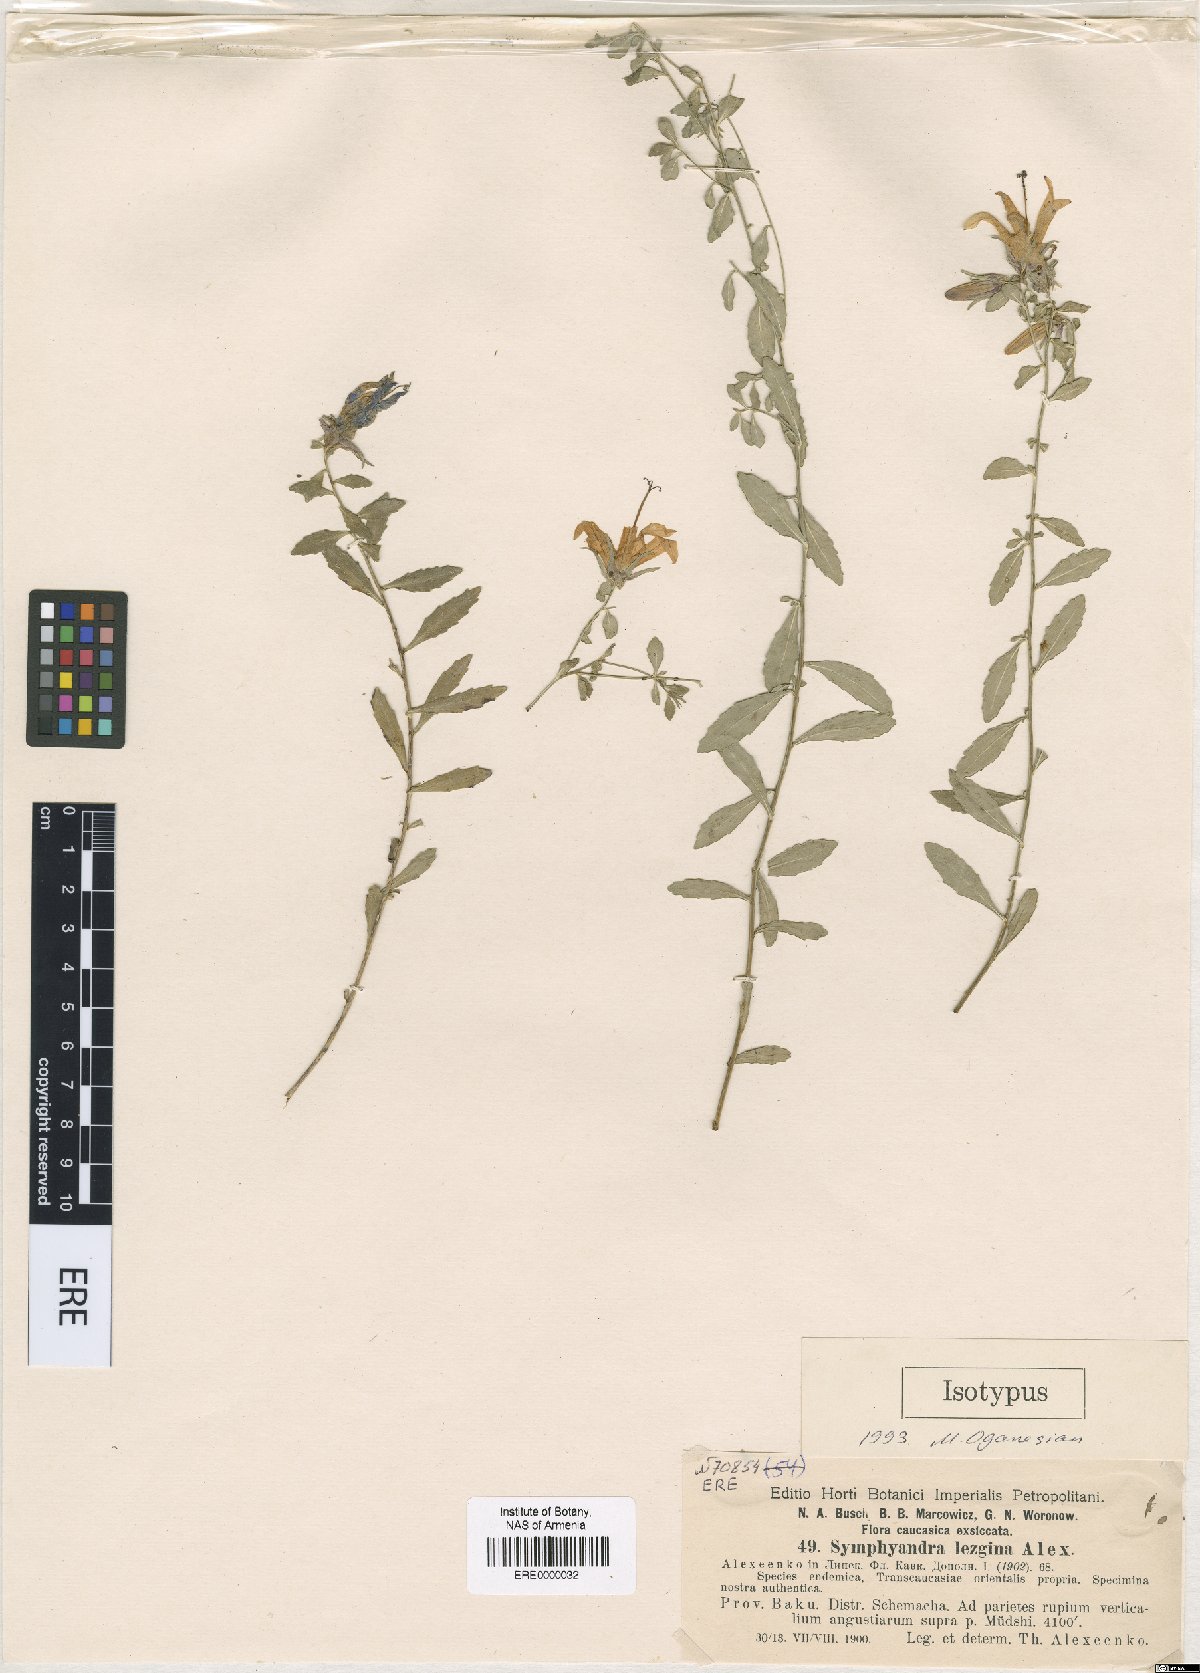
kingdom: Plantae
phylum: Tracheophyta
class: Magnoliopsida
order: Asterales
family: Campanulaceae
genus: Campanula
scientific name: Campanula lezgina
